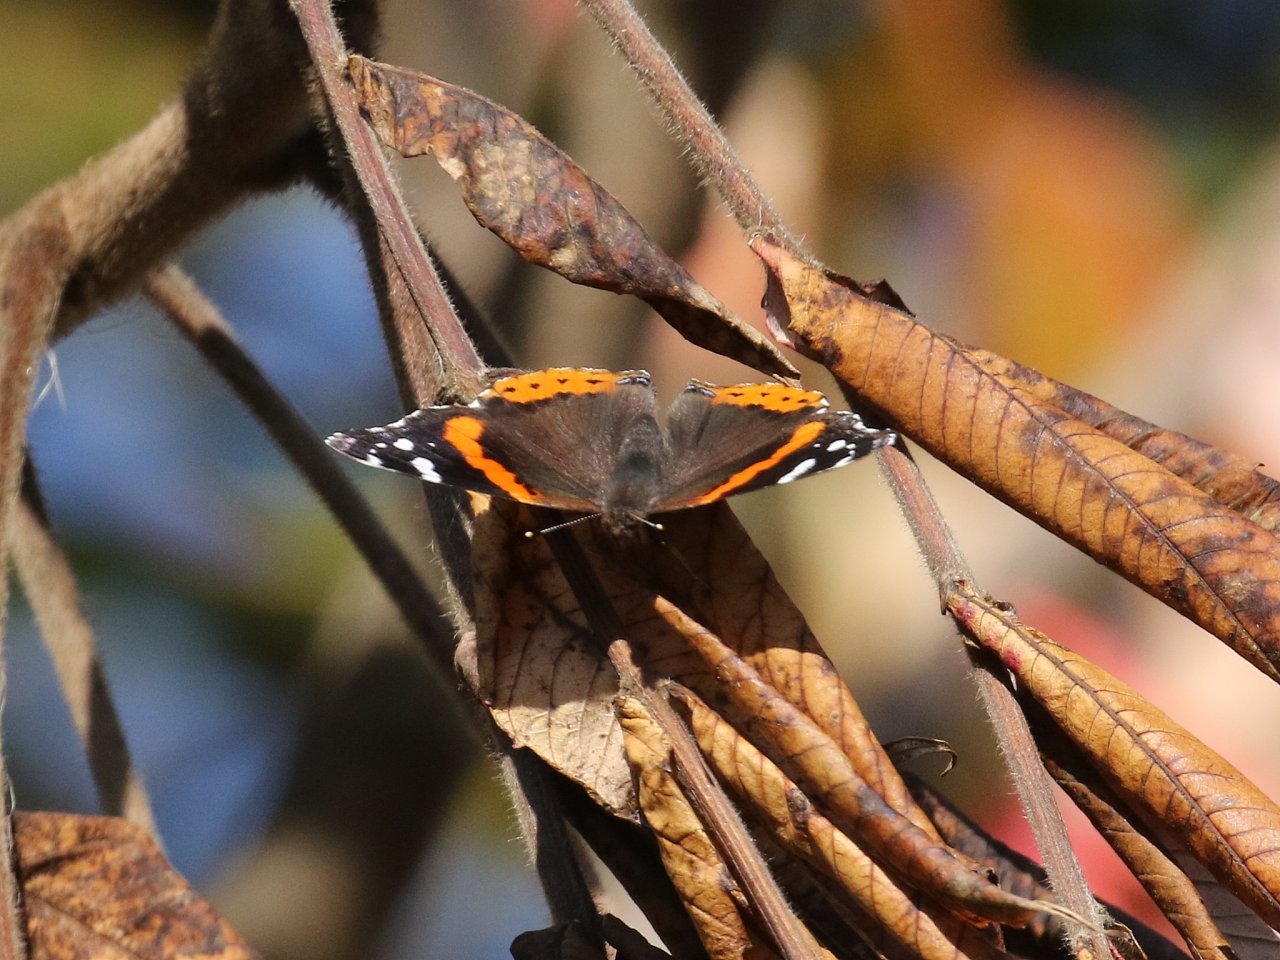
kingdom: Animalia
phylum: Arthropoda
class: Insecta
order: Lepidoptera
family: Nymphalidae
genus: Vanessa
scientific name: Vanessa atalanta
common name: Red Admiral
